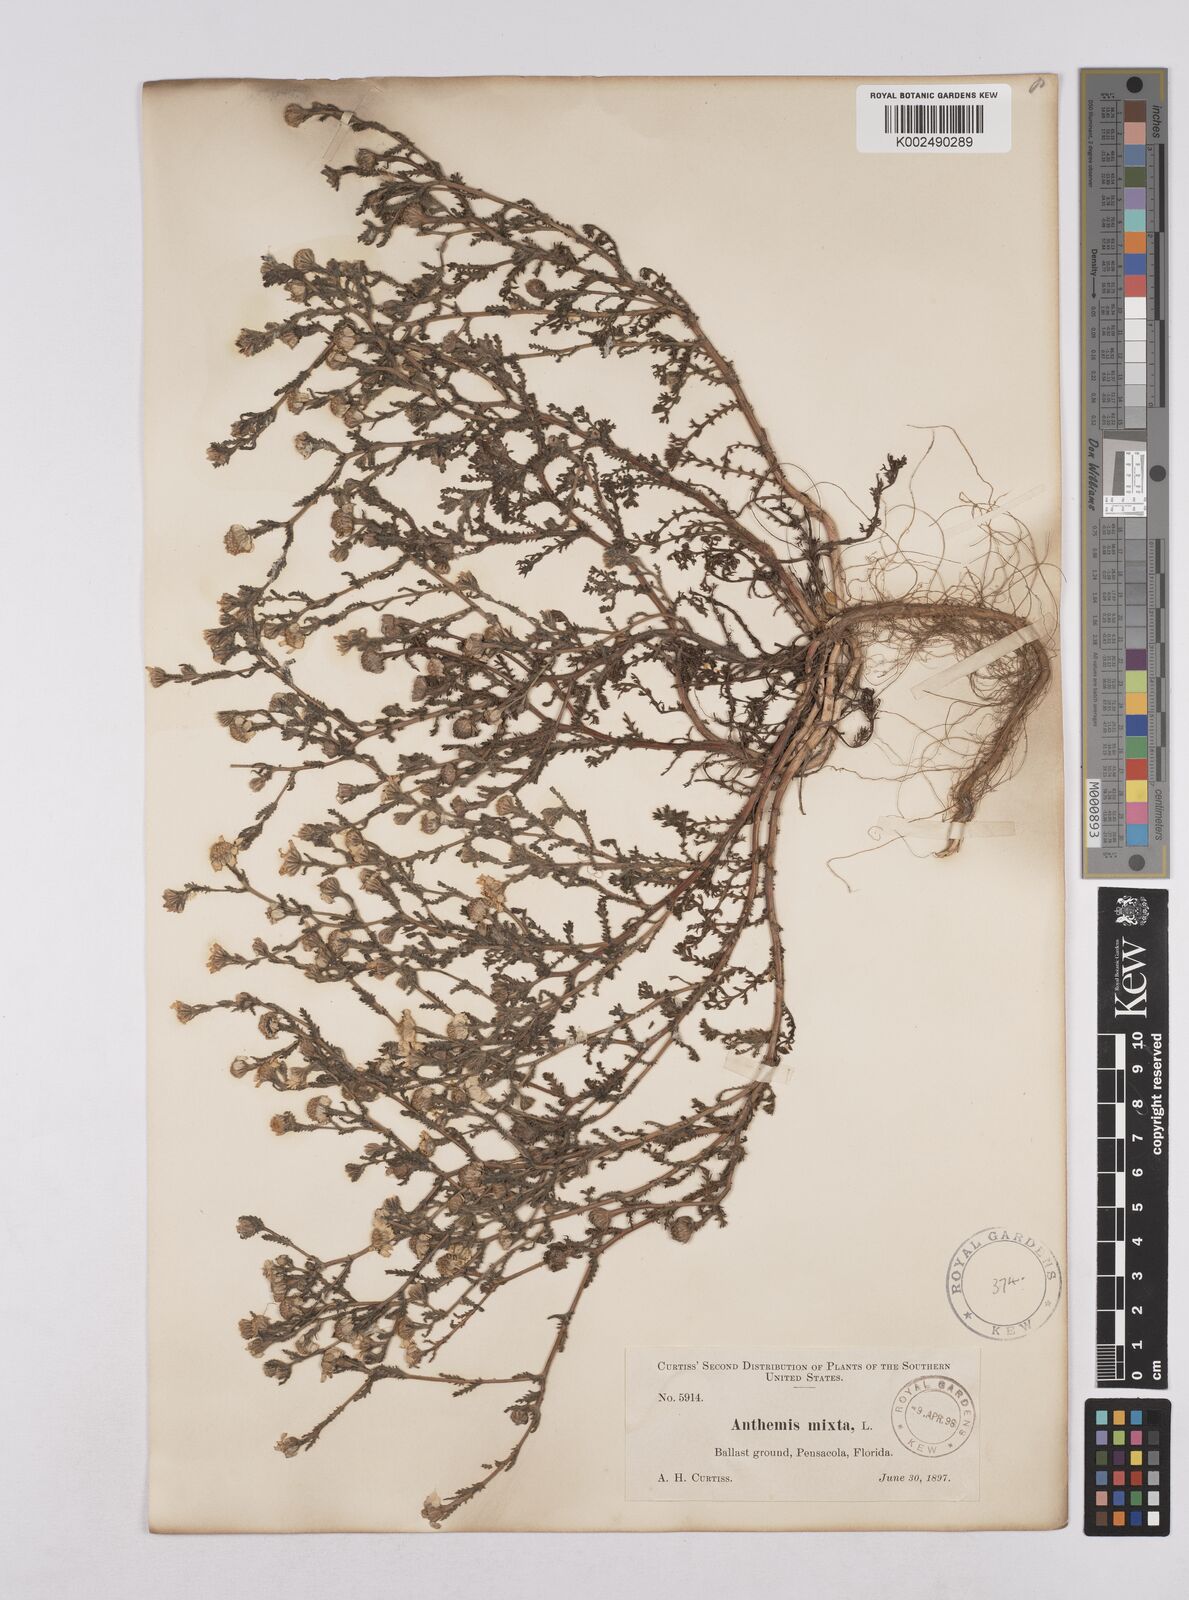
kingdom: Plantae
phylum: Tracheophyta
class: Magnoliopsida
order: Asterales
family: Asteraceae
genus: Chamaemelum
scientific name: Chamaemelum
